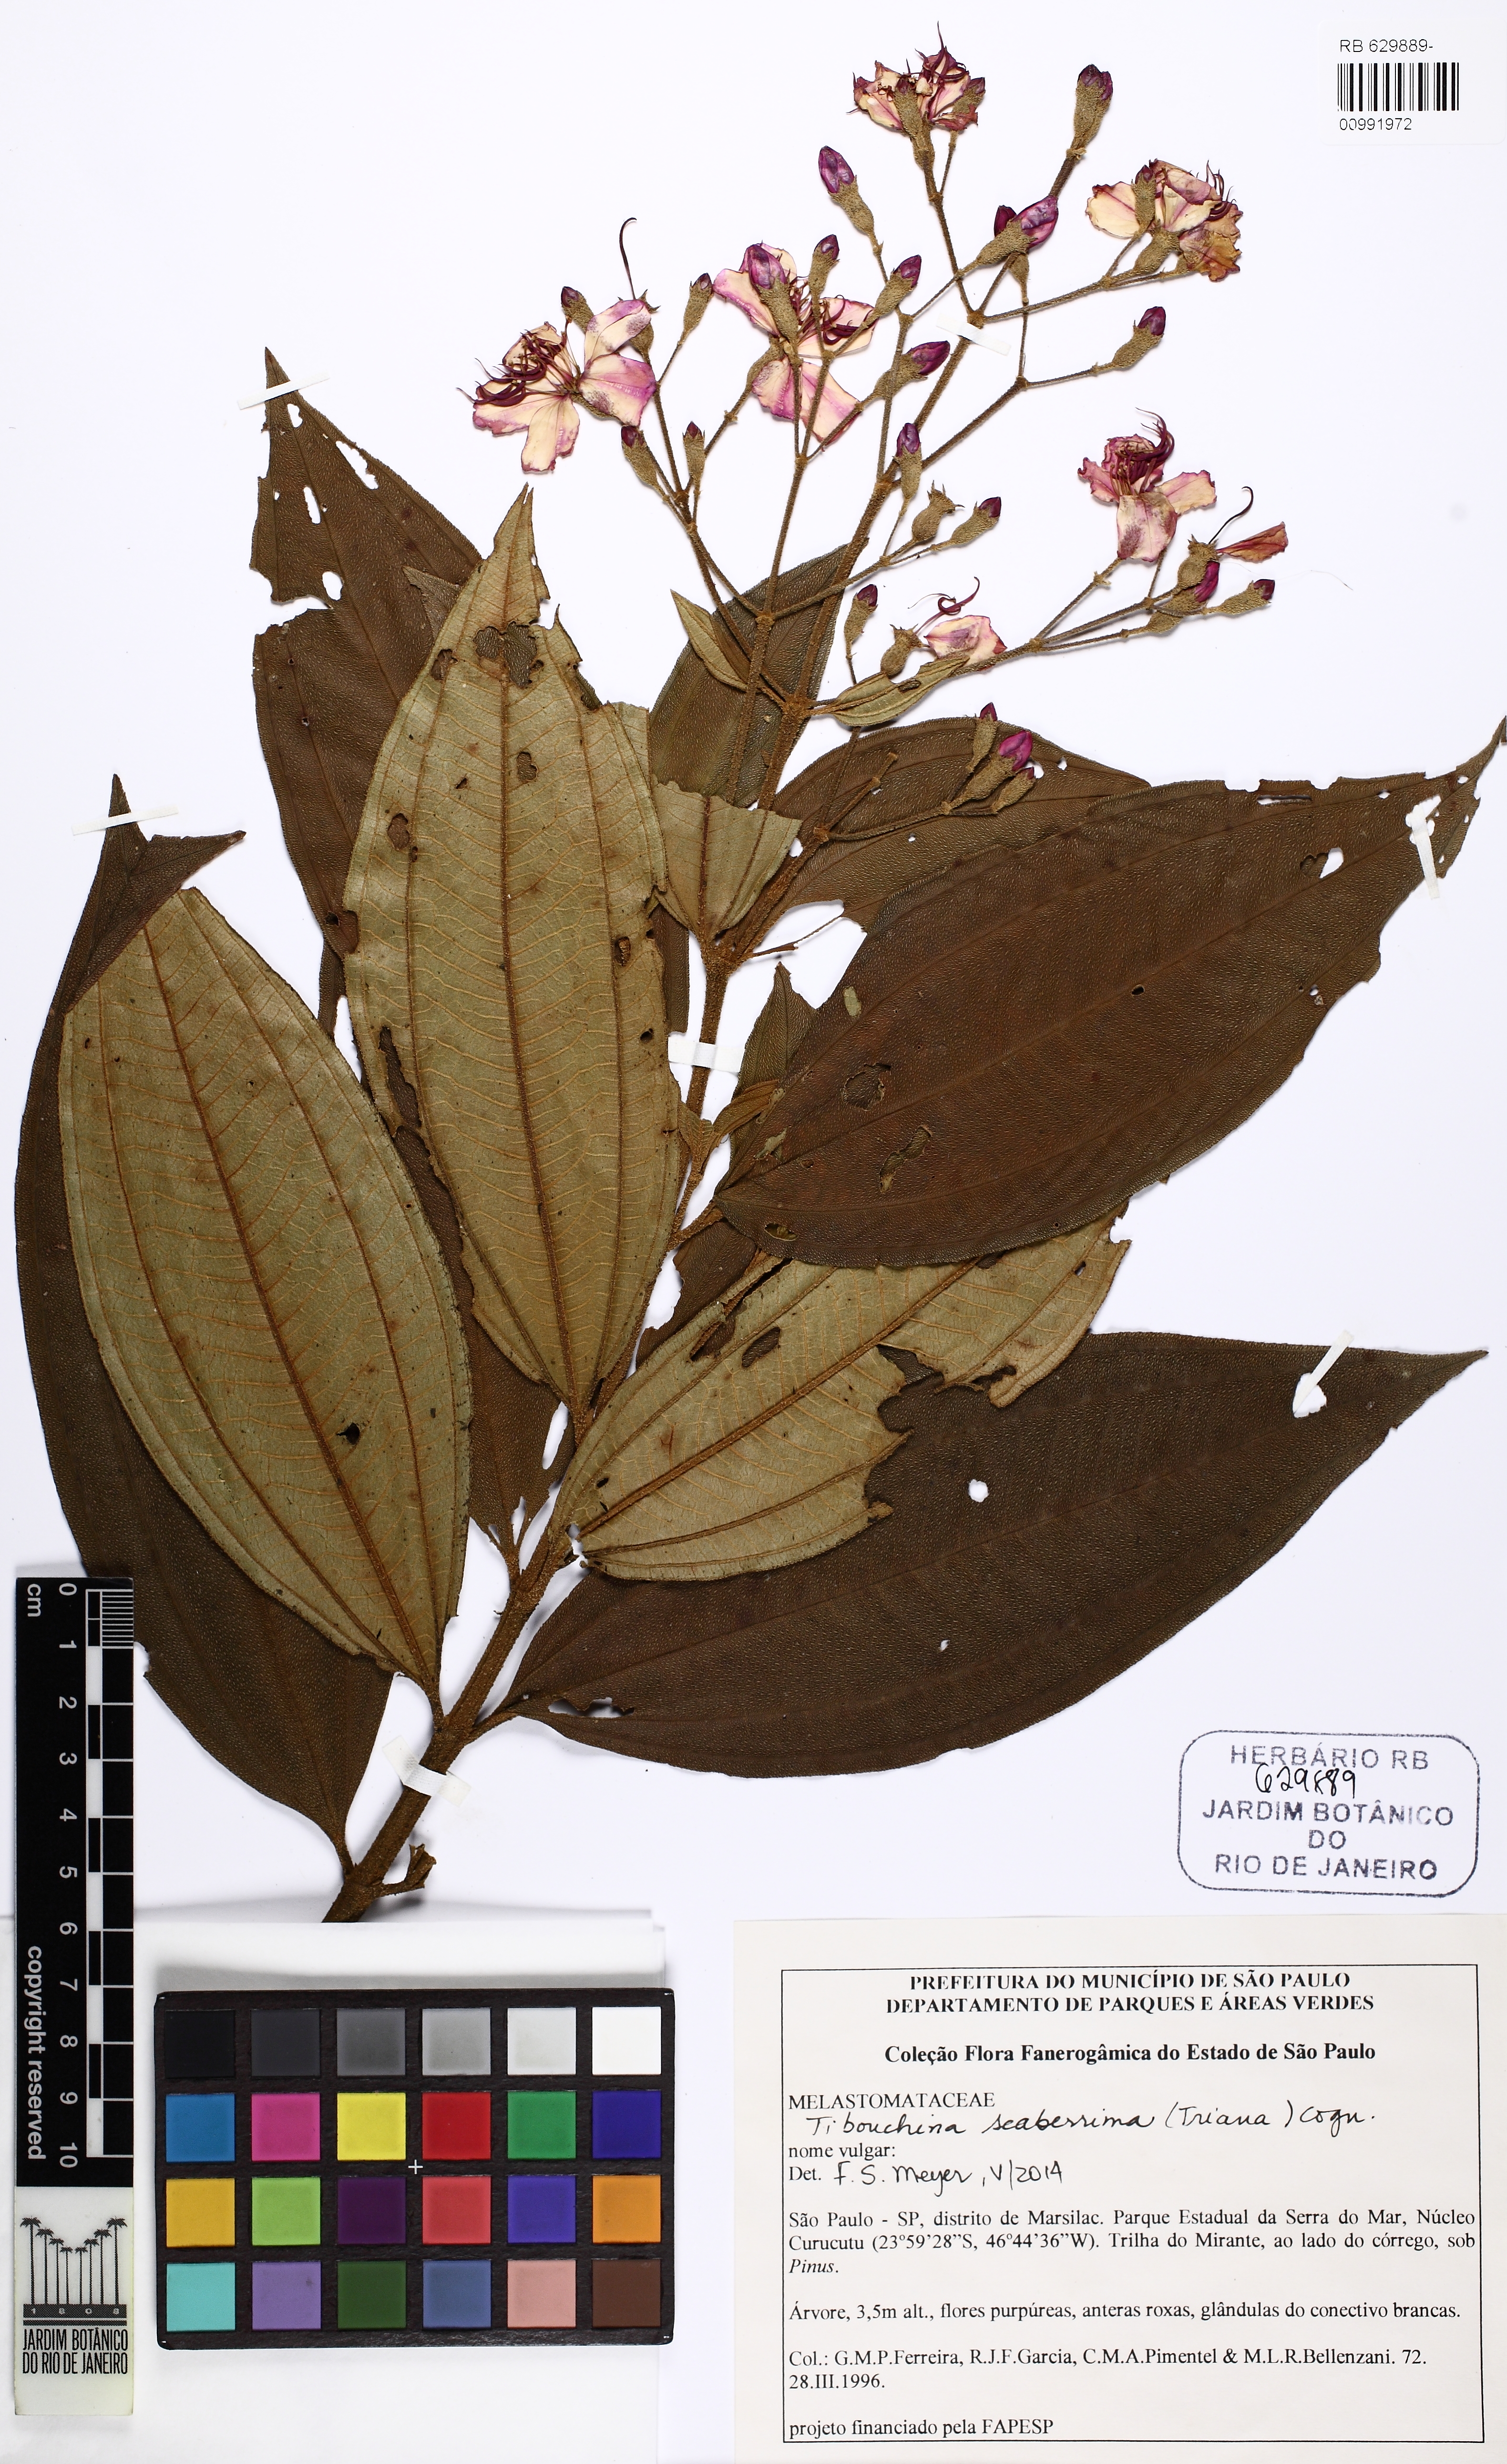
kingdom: Plantae
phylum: Tracheophyta
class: Magnoliopsida
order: Malpighiales
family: Euphorbiaceae
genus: Mabea
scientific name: Mabea piriri
